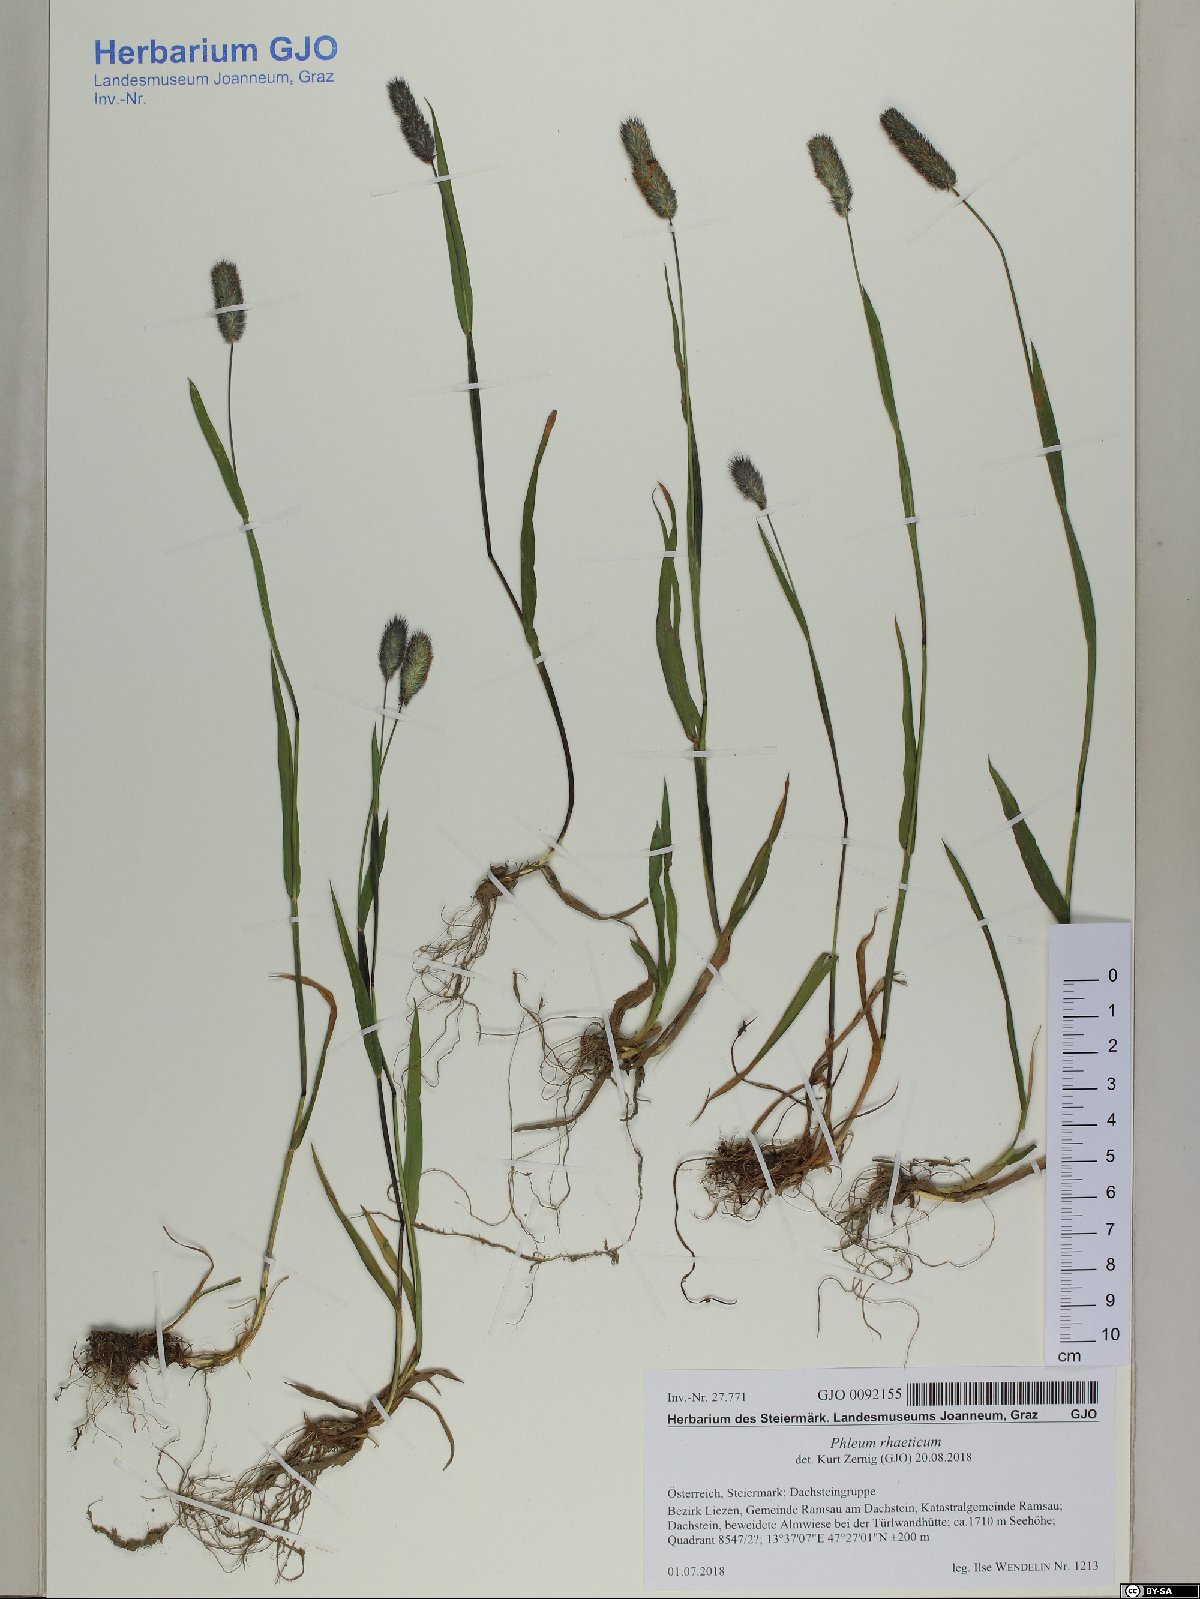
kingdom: Plantae
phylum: Tracheophyta
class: Liliopsida
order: Poales
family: Poaceae
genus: Phleum
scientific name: Phleum alpinum
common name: Alpine cat's-tail
